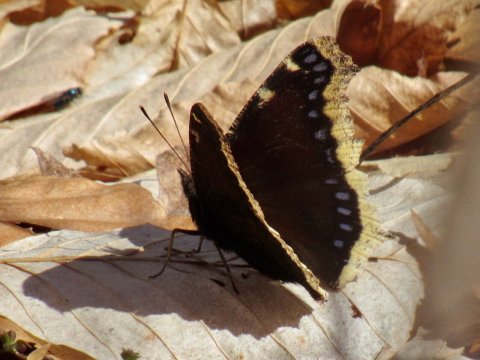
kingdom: Animalia
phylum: Arthropoda
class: Insecta
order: Lepidoptera
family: Nymphalidae
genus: Nymphalis
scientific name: Nymphalis antiopa
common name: Mourning Cloak
